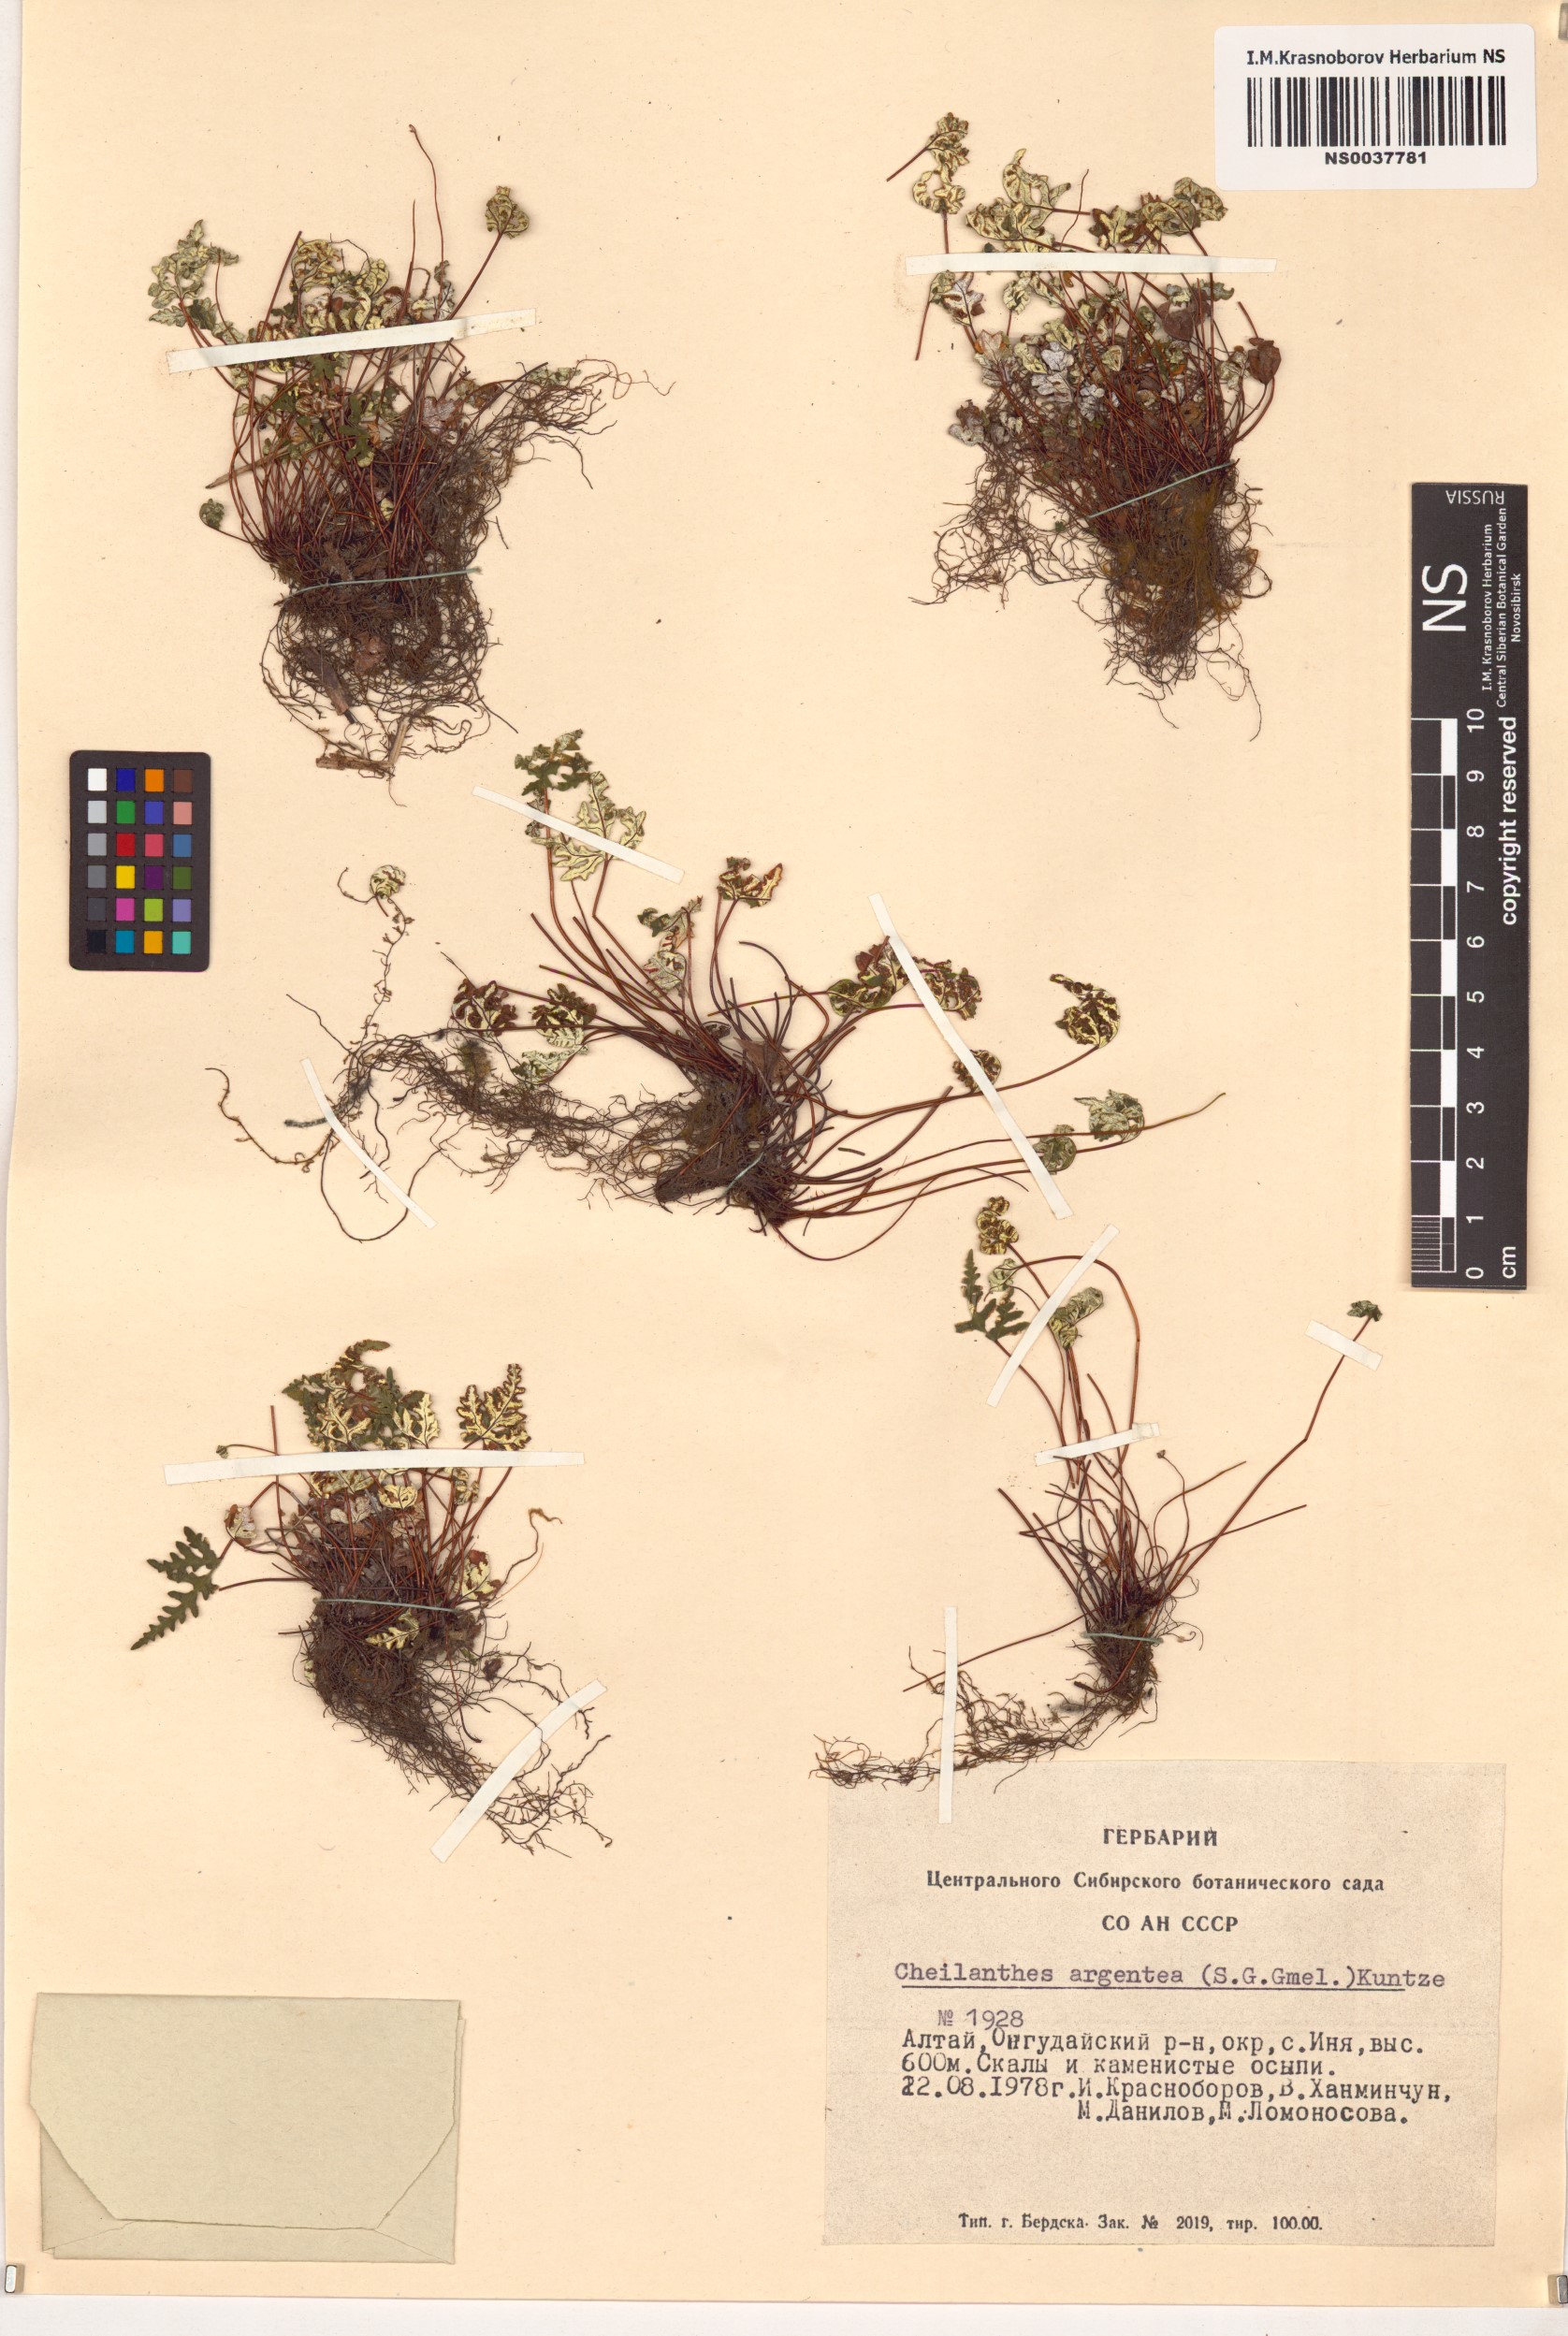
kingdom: Plantae
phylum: Tracheophyta
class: Polypodiopsida
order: Polypodiales
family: Pteridaceae
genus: Aleuritopteris
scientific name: Aleuritopteris argentea
